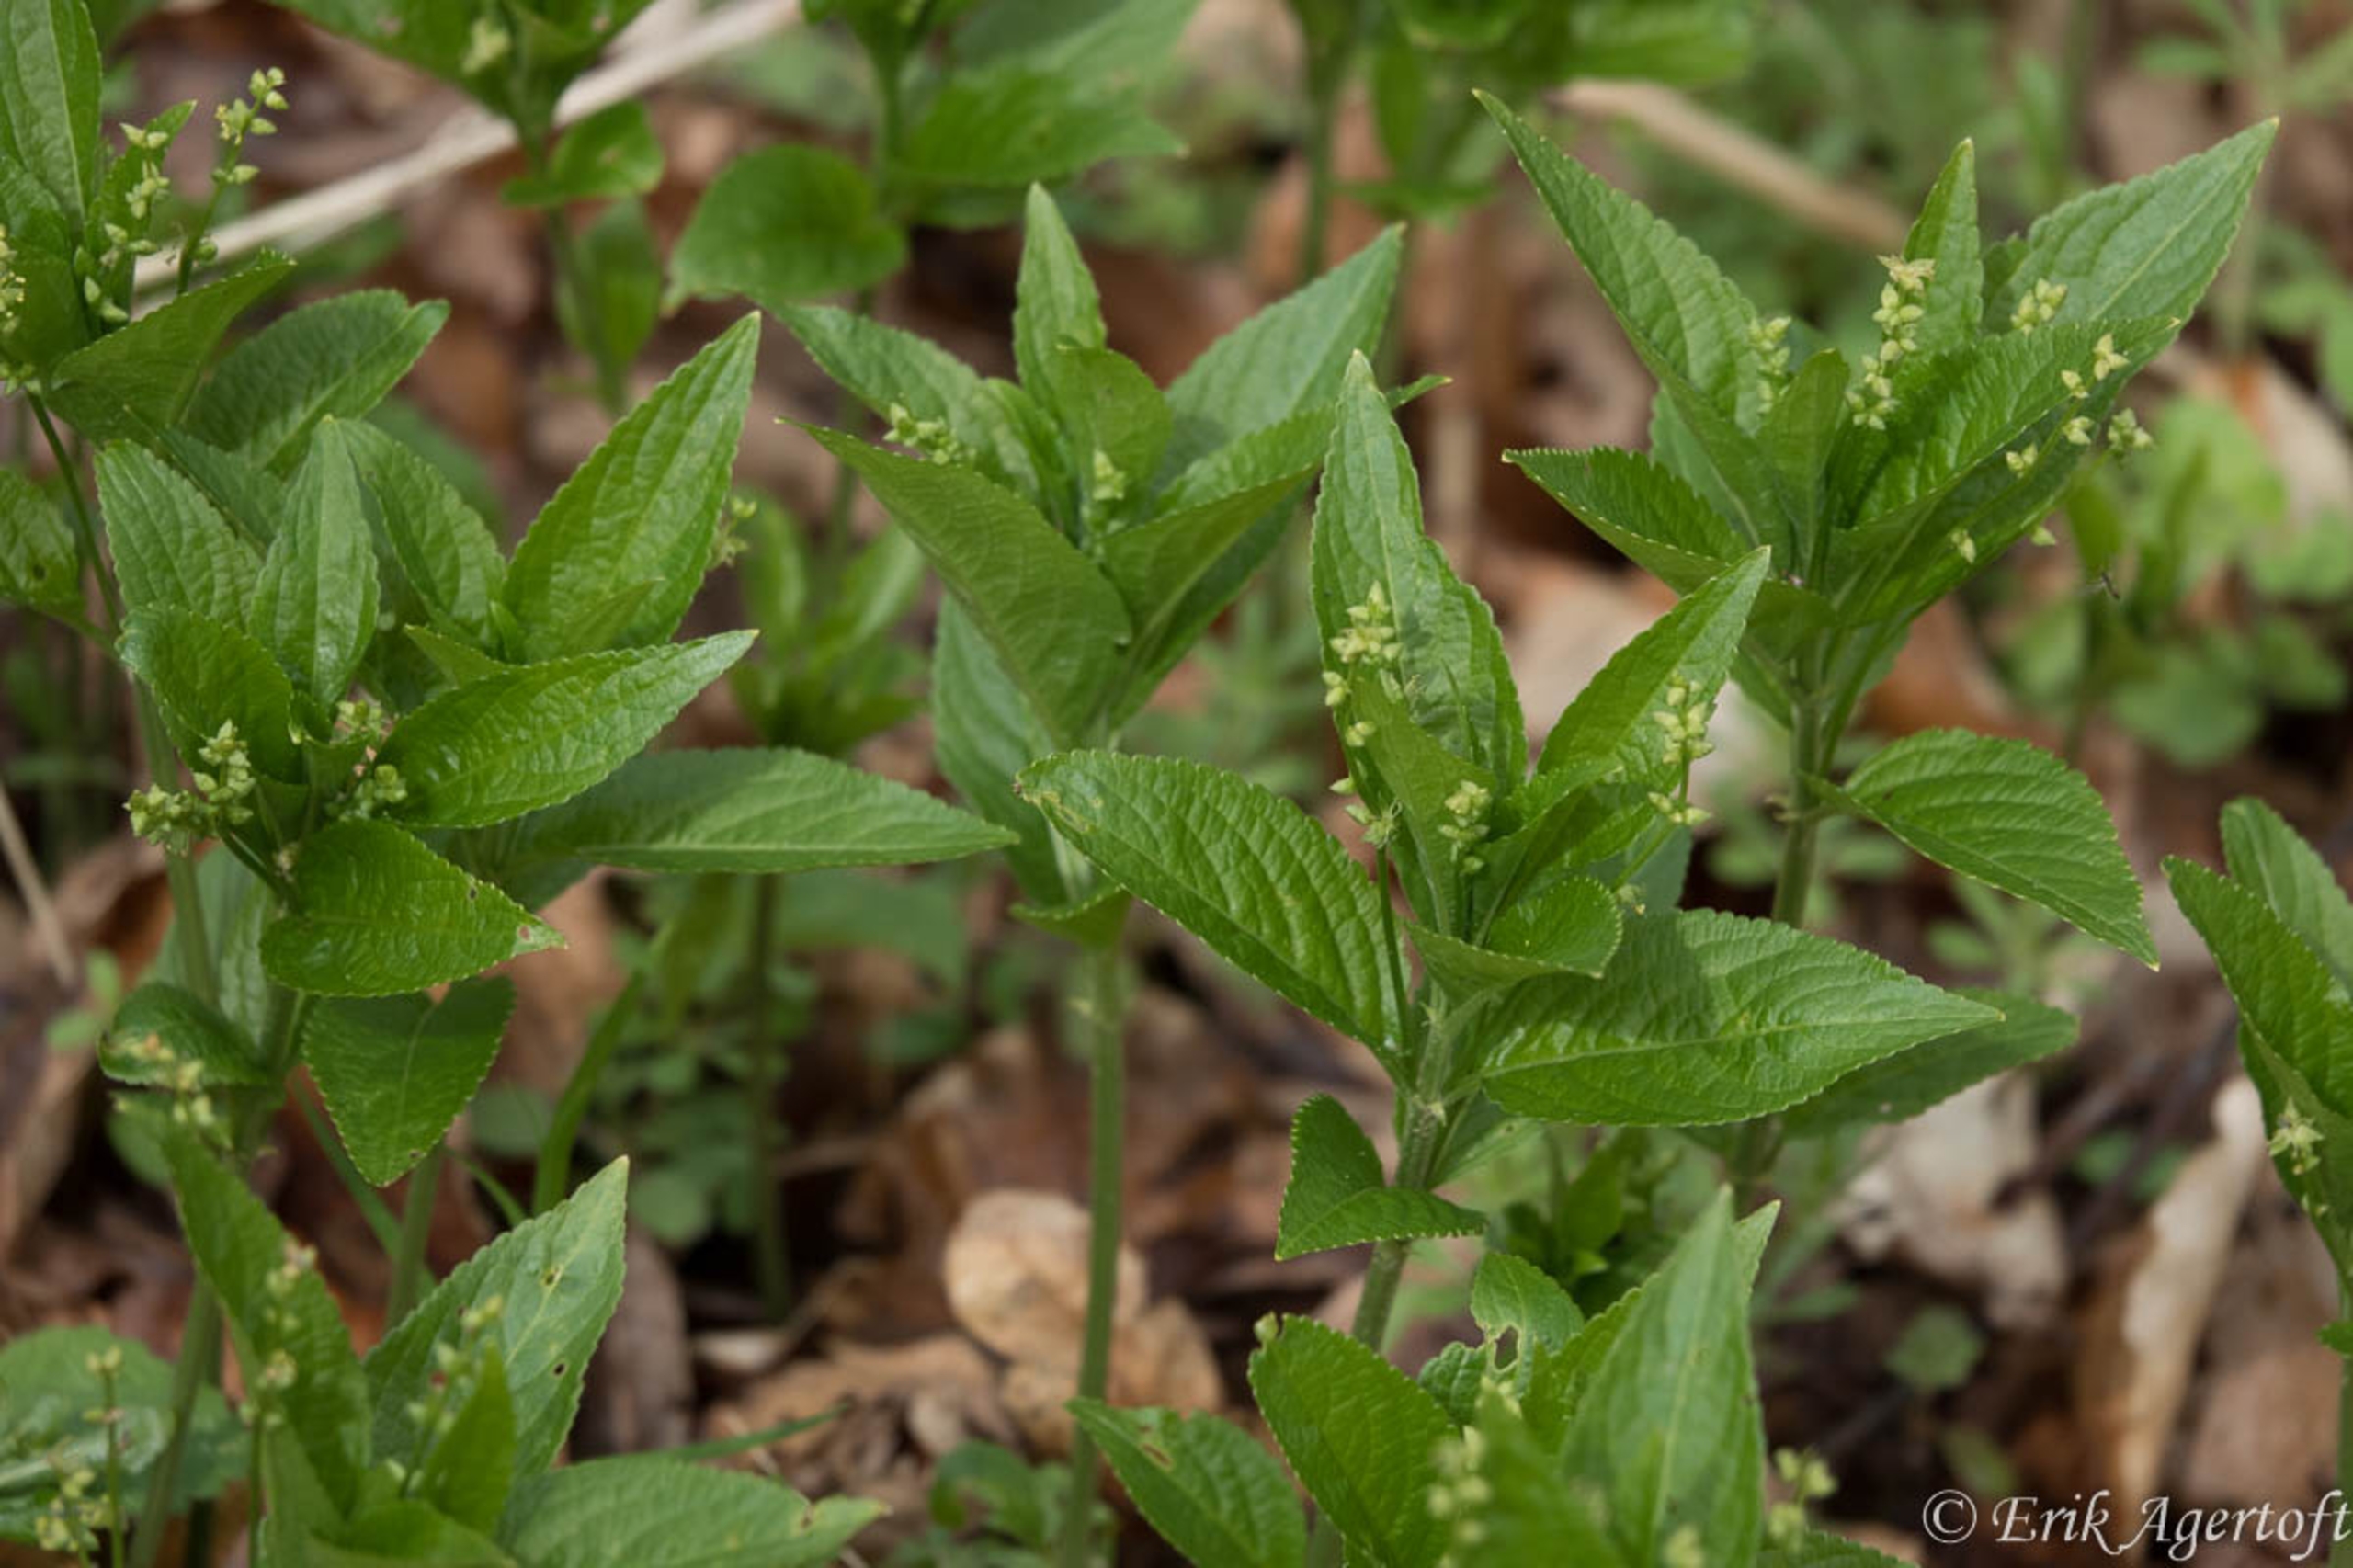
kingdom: Plantae
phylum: Tracheophyta
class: Magnoliopsida
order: Malpighiales
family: Euphorbiaceae
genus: Mercurialis
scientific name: Mercurialis perennis
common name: Almindelig bingelurt
